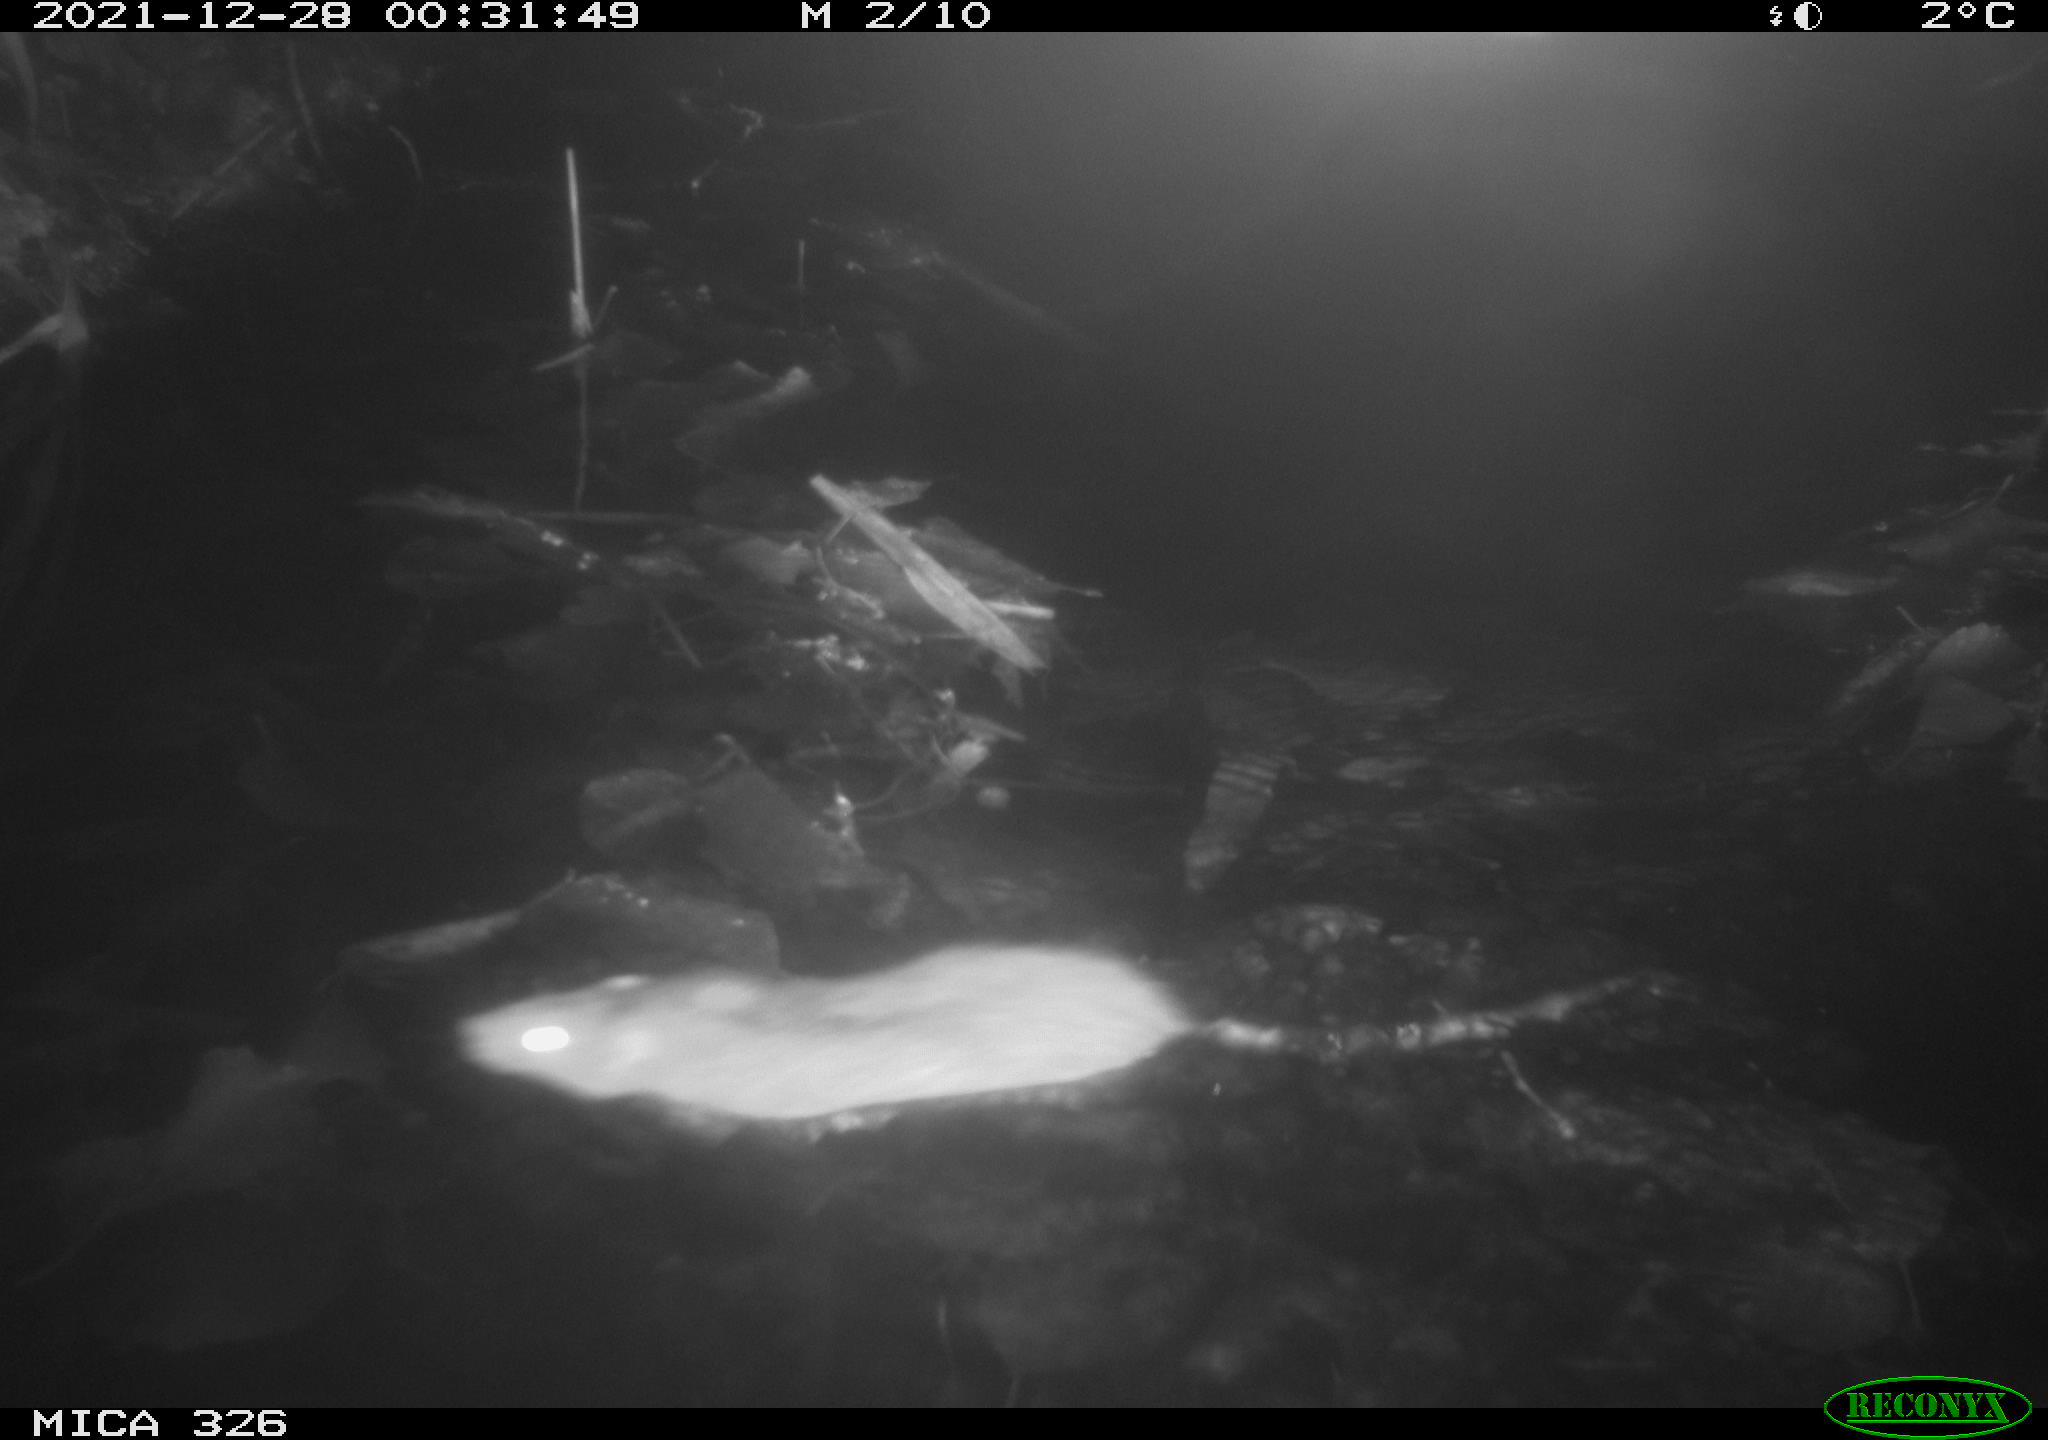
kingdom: Animalia
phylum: Chordata
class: Mammalia
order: Rodentia
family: Muridae
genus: Rattus
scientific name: Rattus norvegicus
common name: Brown rat
